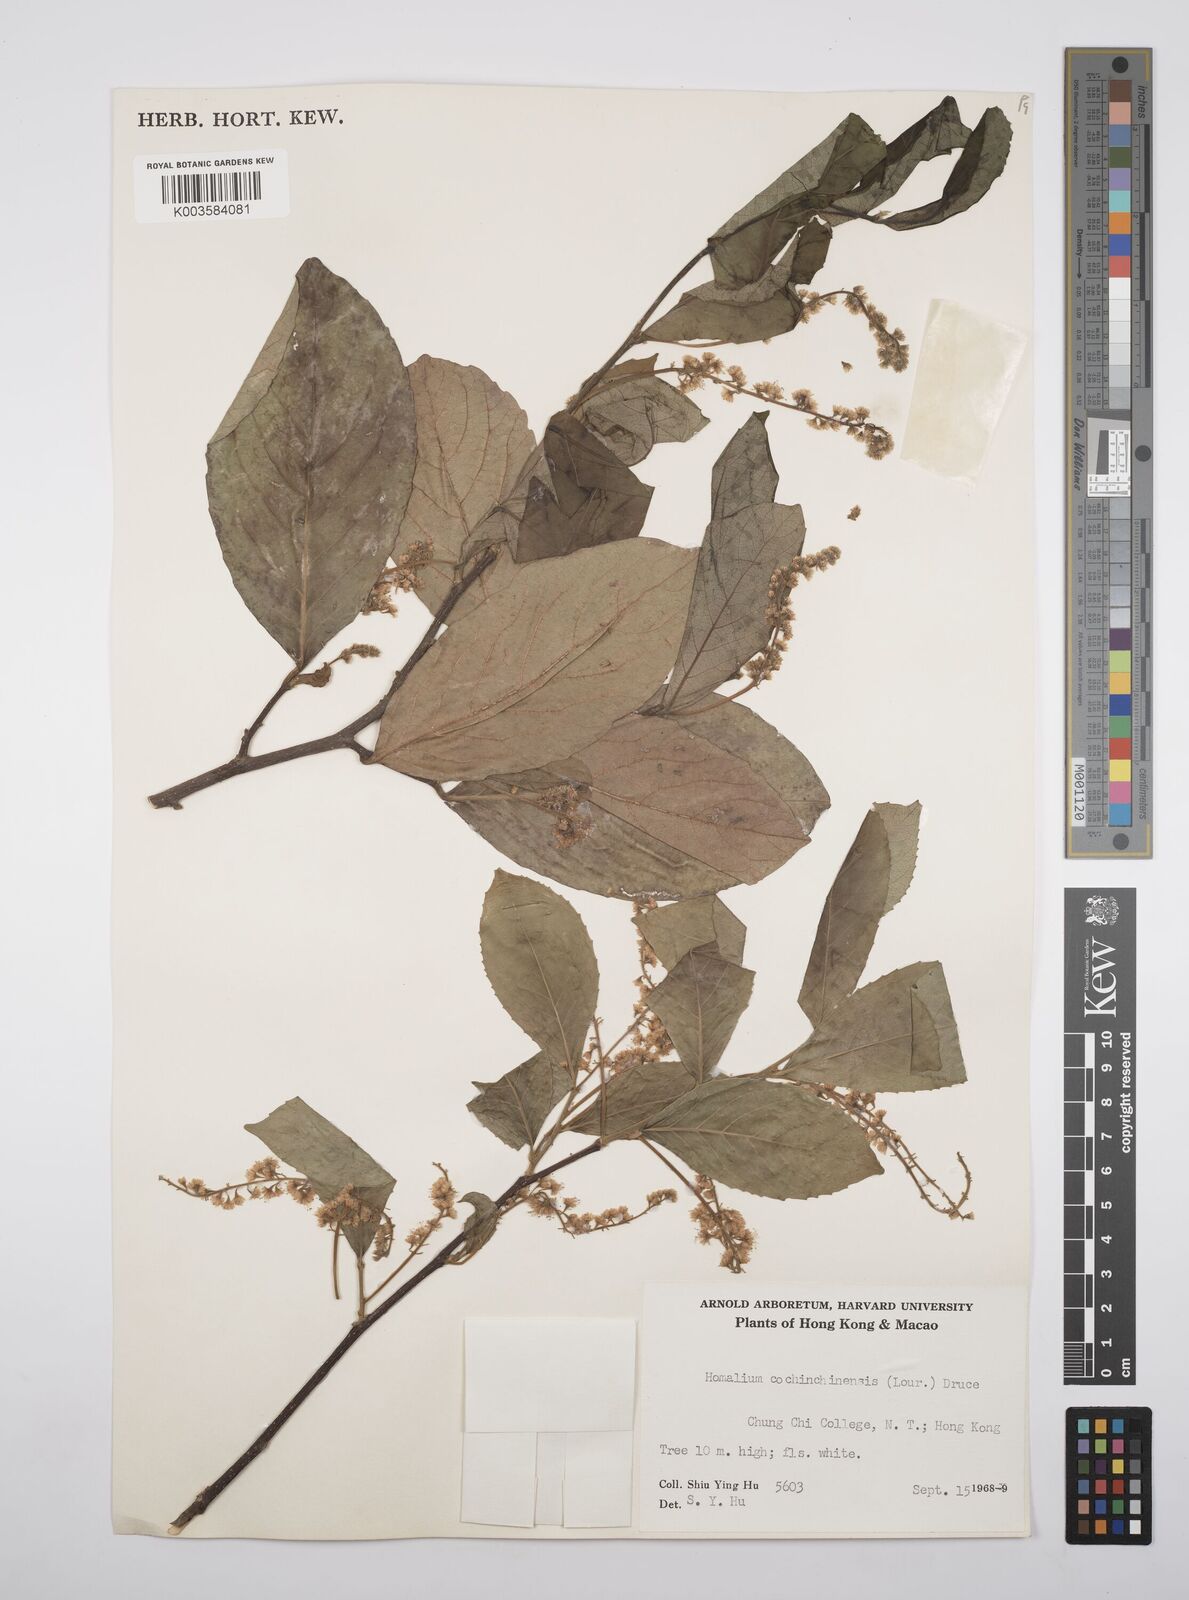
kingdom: Plantae
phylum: Tracheophyta
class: Magnoliopsida
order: Malpighiales
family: Salicaceae
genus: Homalium
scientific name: Homalium cochinchinensis
